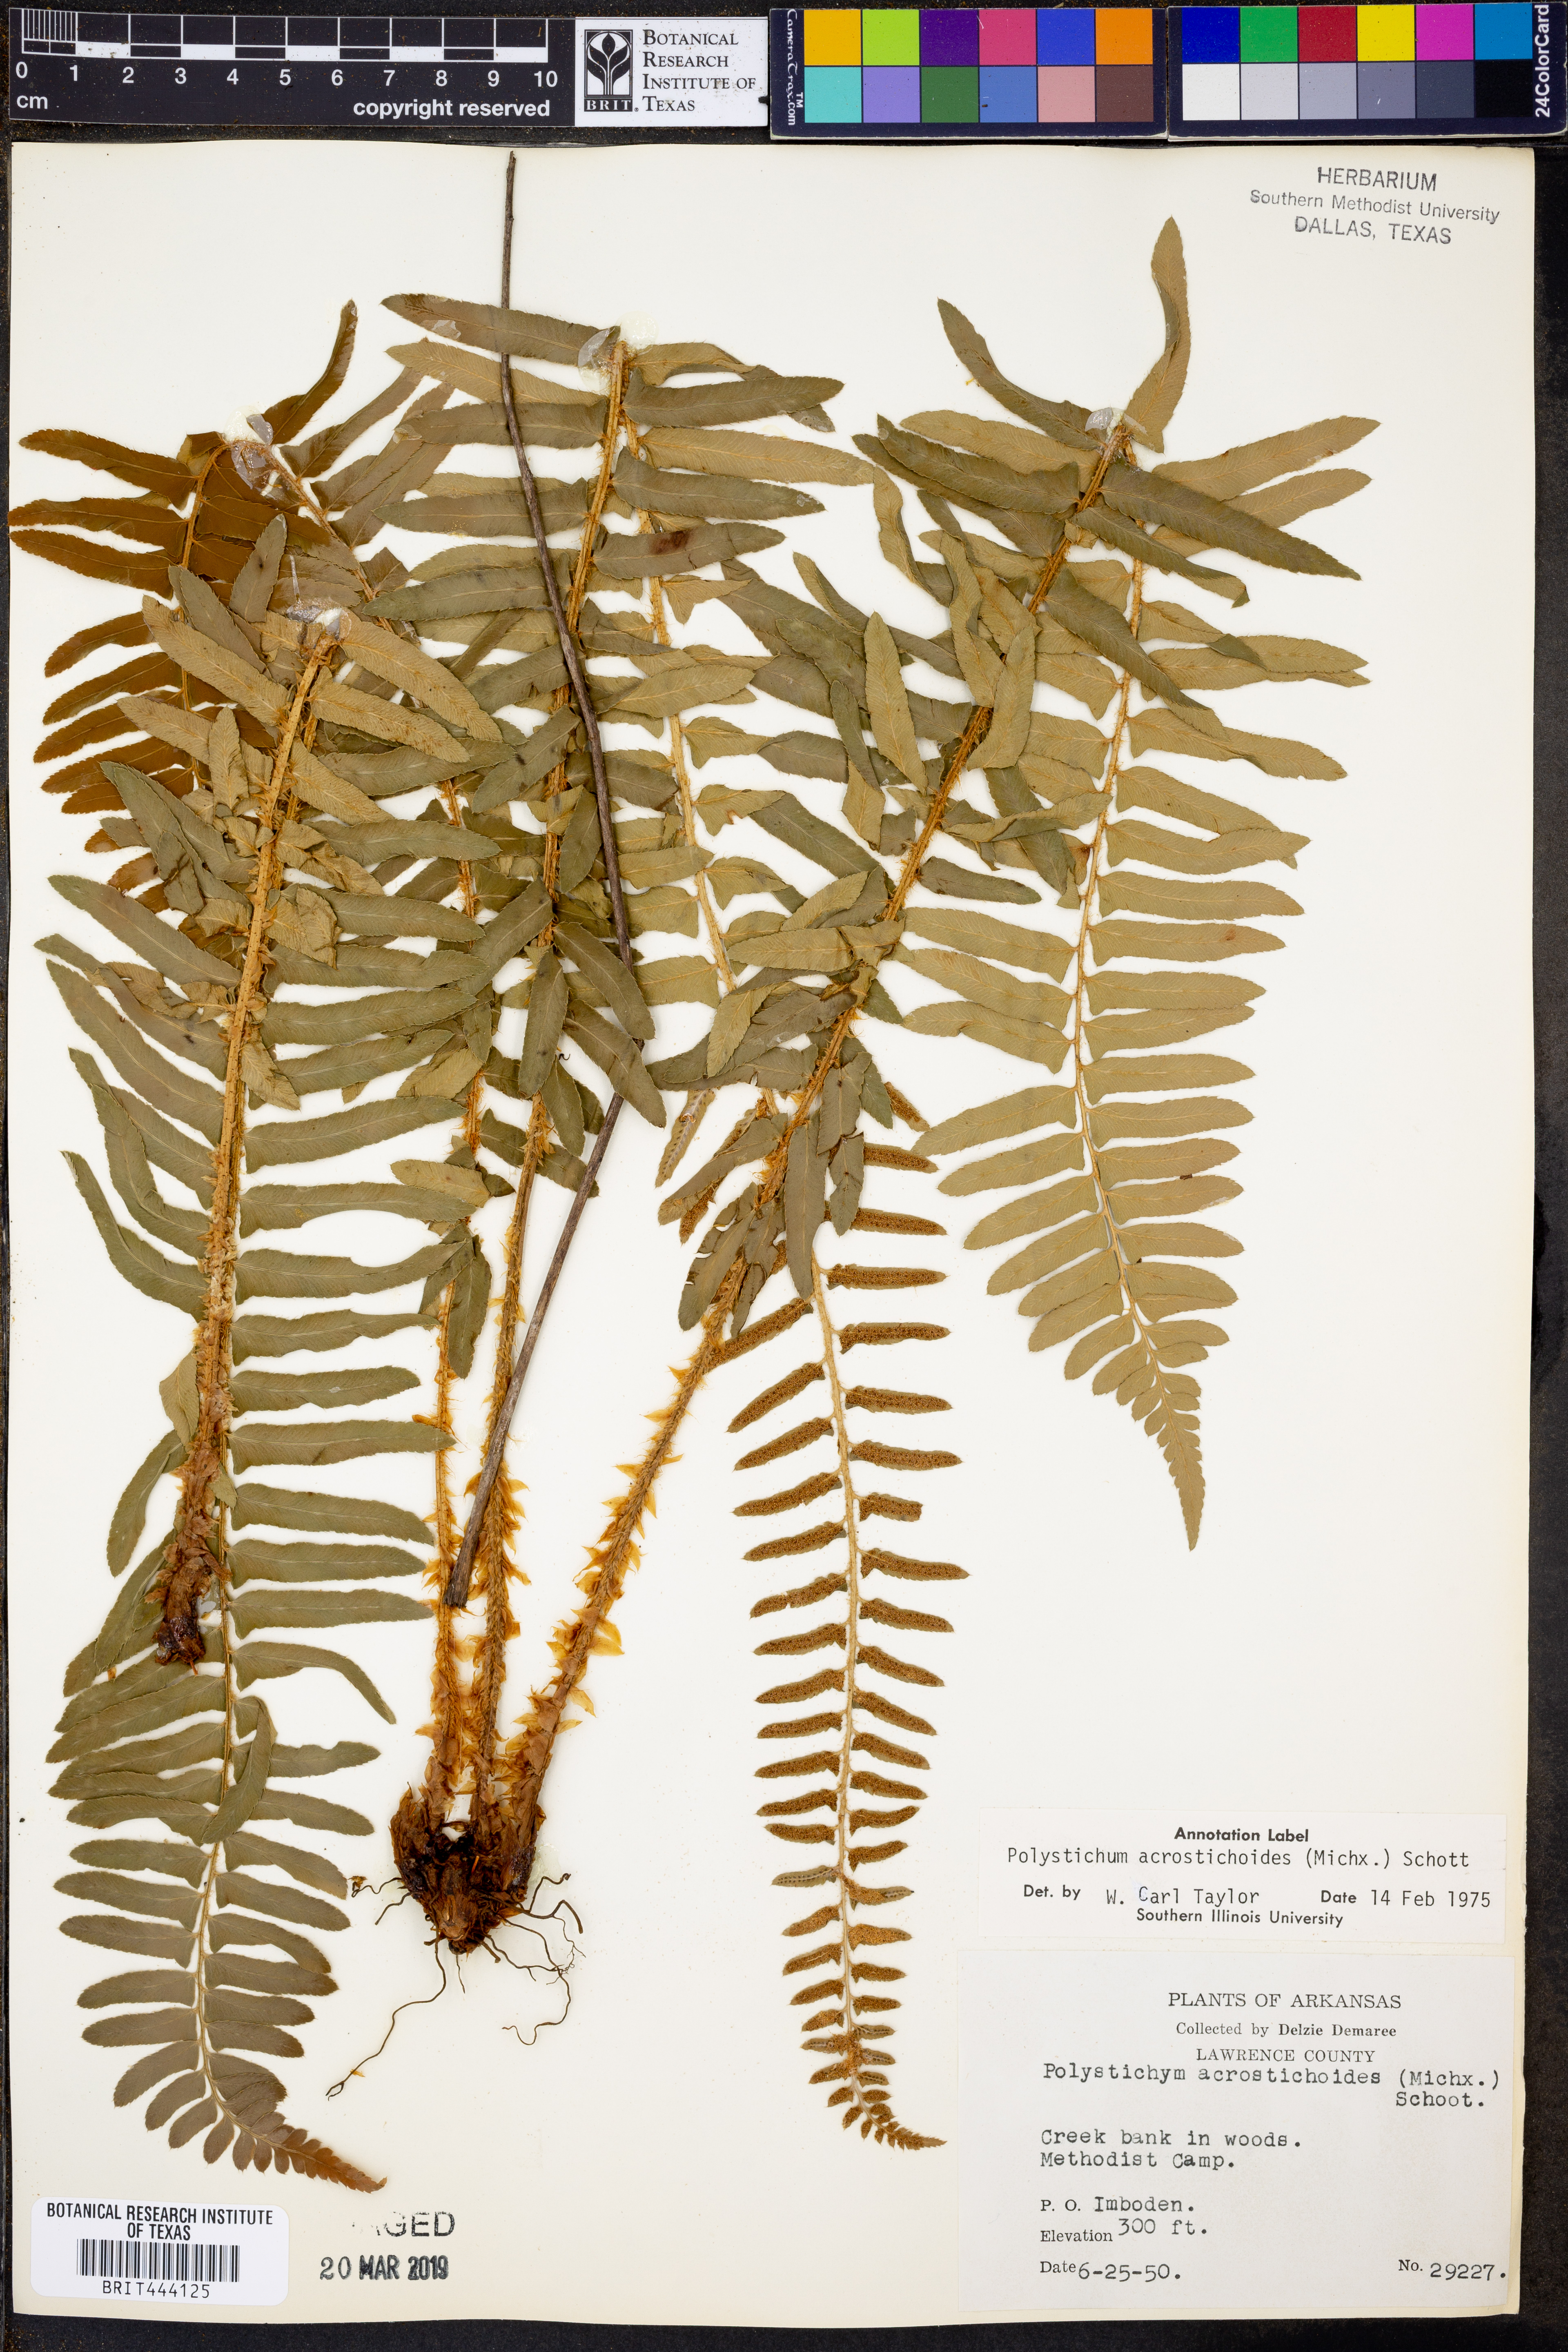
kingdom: Plantae
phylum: Tracheophyta
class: Polypodiopsida
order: Polypodiales
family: Dryopteridaceae
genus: Polystichum
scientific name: Polystichum acrostichoides
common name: Christmas fern
